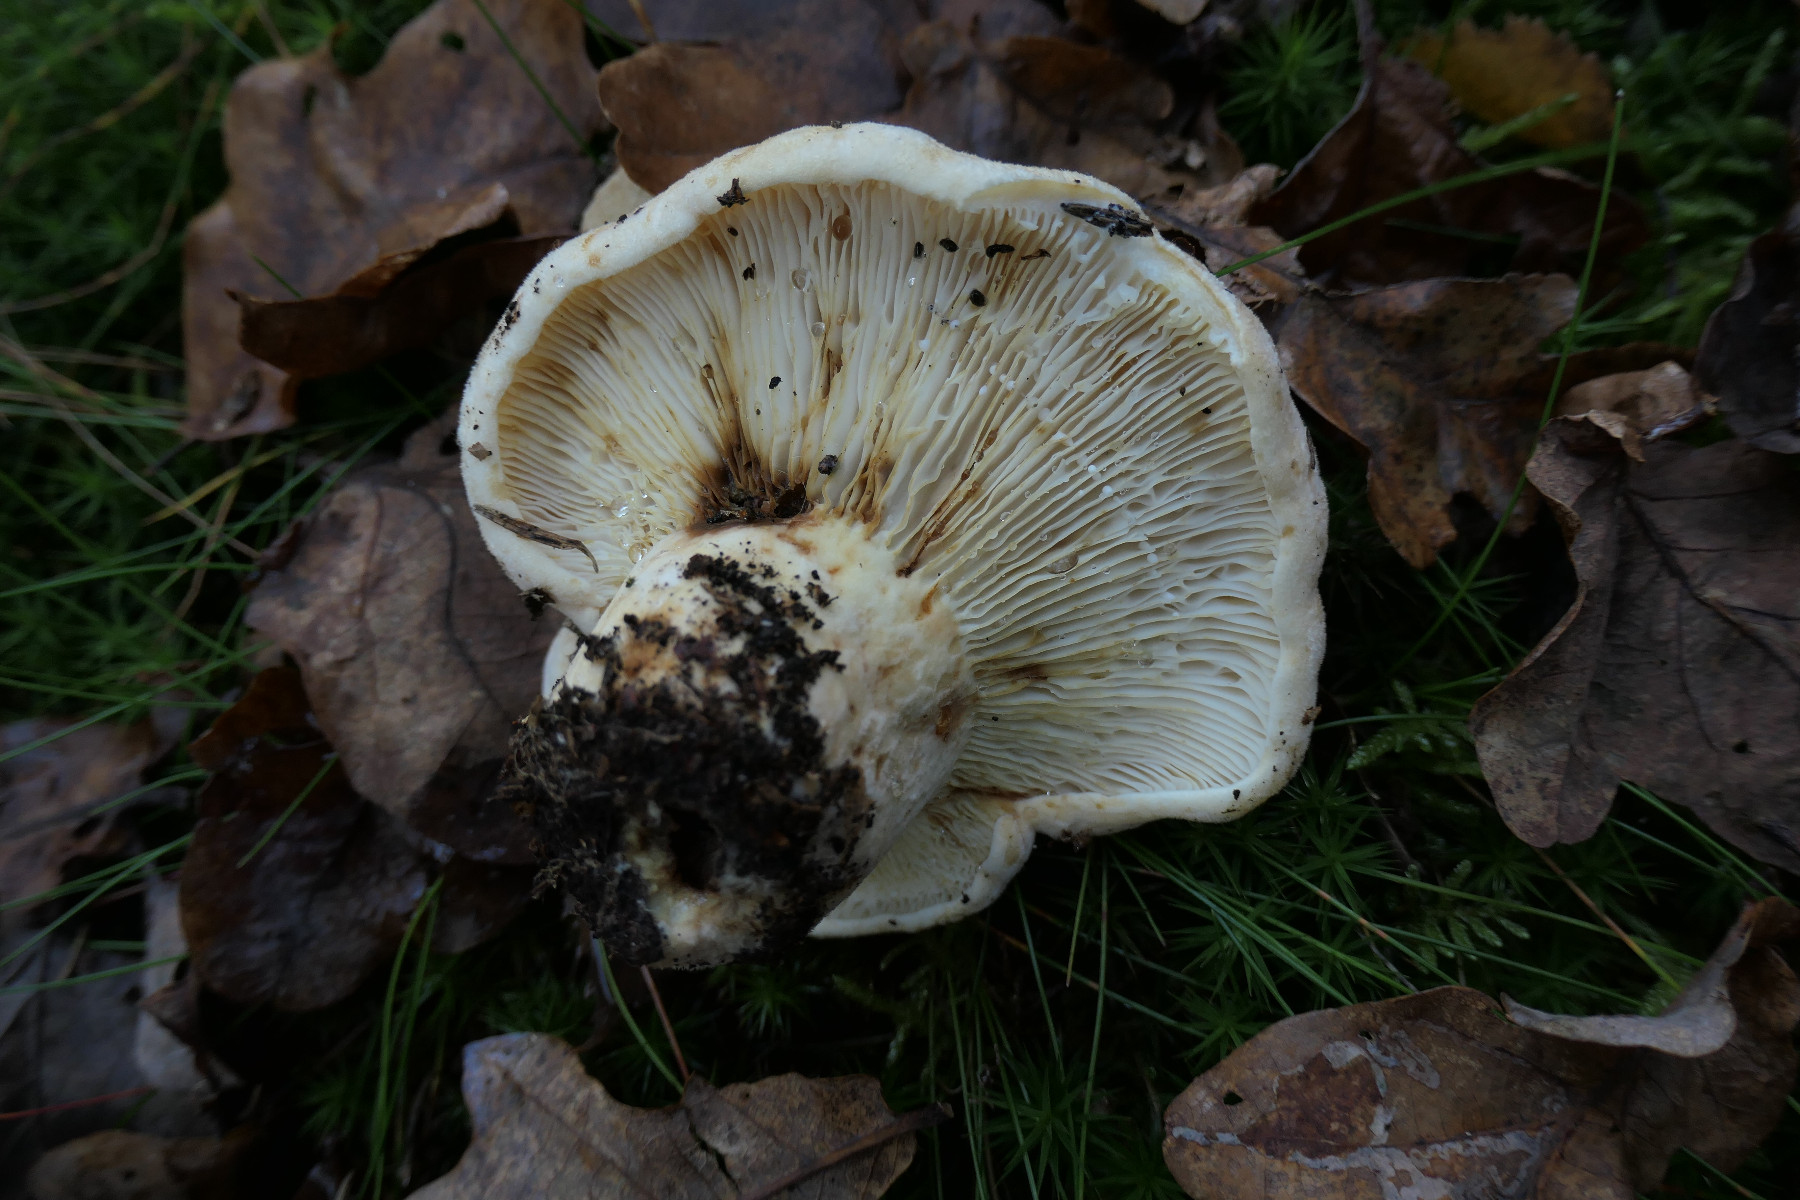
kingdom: Fungi
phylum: Basidiomycota
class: Agaricomycetes
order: Russulales
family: Russulaceae
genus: Lactifluus
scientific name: Lactifluus vellereus
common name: hvidfiltet mælkehat
